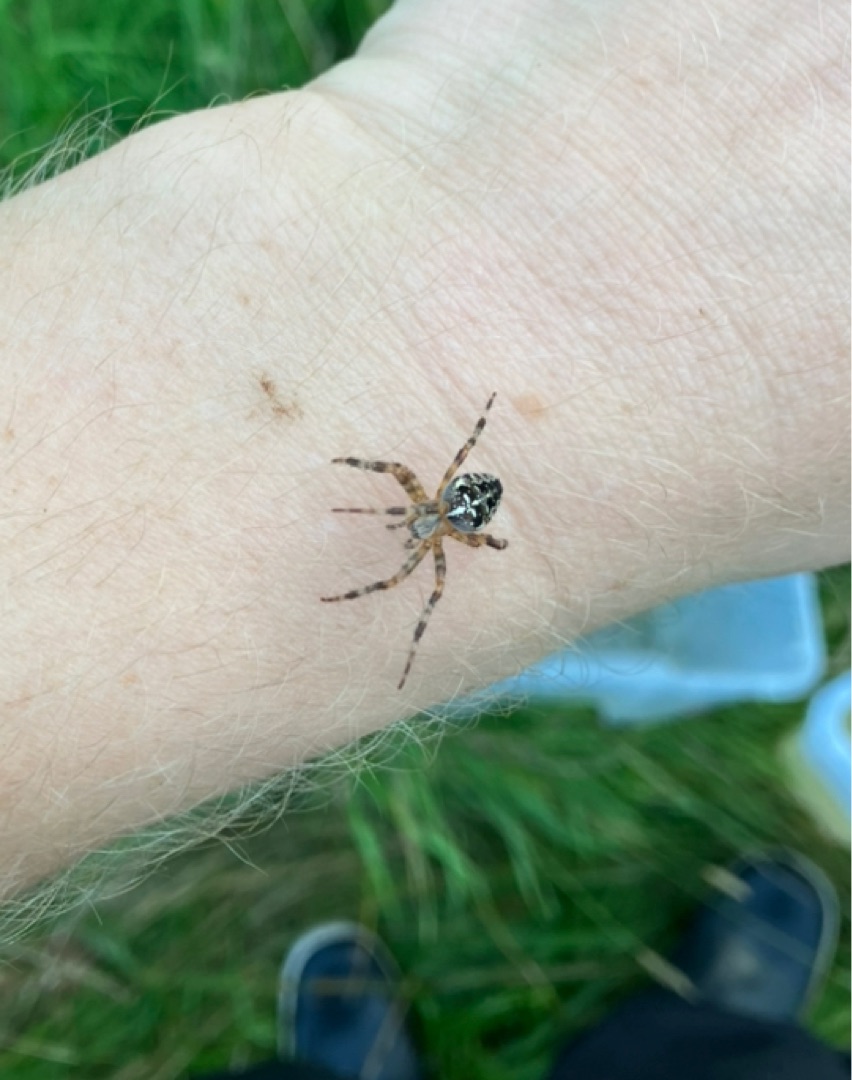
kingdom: Animalia
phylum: Arthropoda
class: Arachnida
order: Araneae
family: Araneidae
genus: Araneus
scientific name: Araneus diadematus
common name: Korsedderkop
